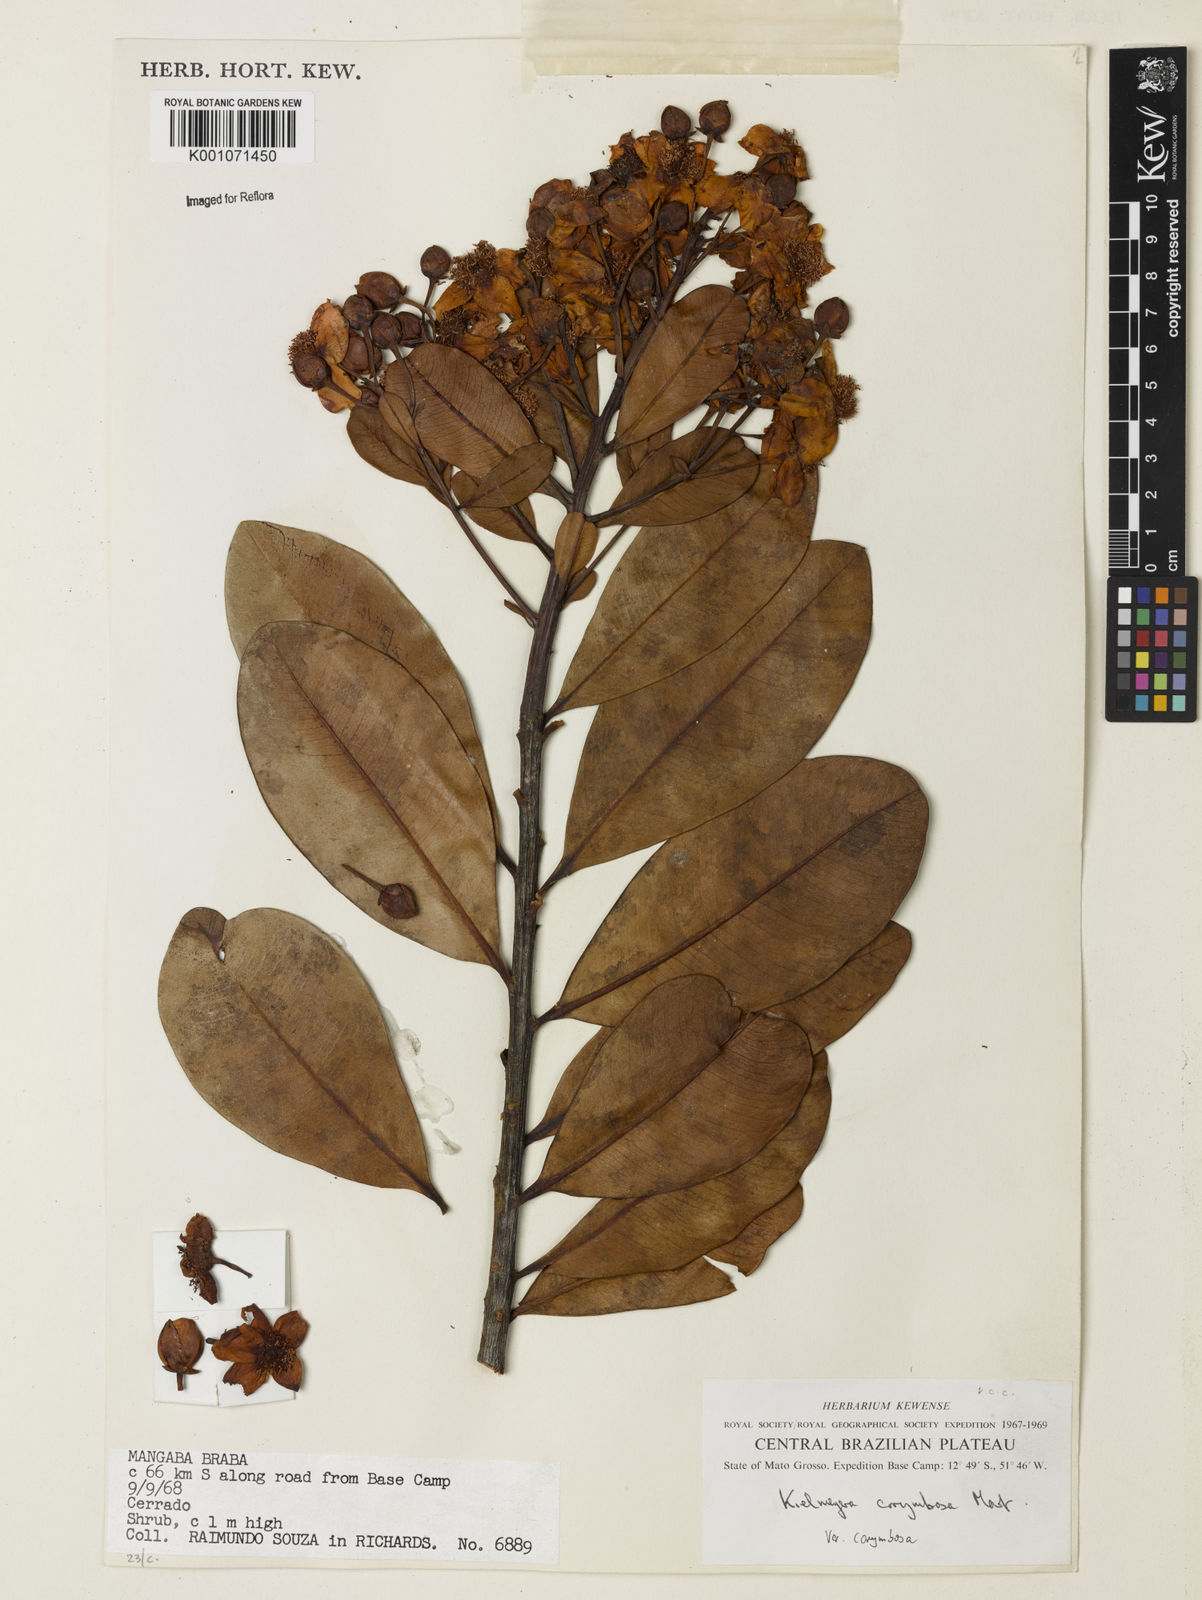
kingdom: Plantae
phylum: Tracheophyta
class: Magnoliopsida
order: Malpighiales
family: Calophyllaceae
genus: Kielmeyera
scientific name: Kielmeyera corymbosa
